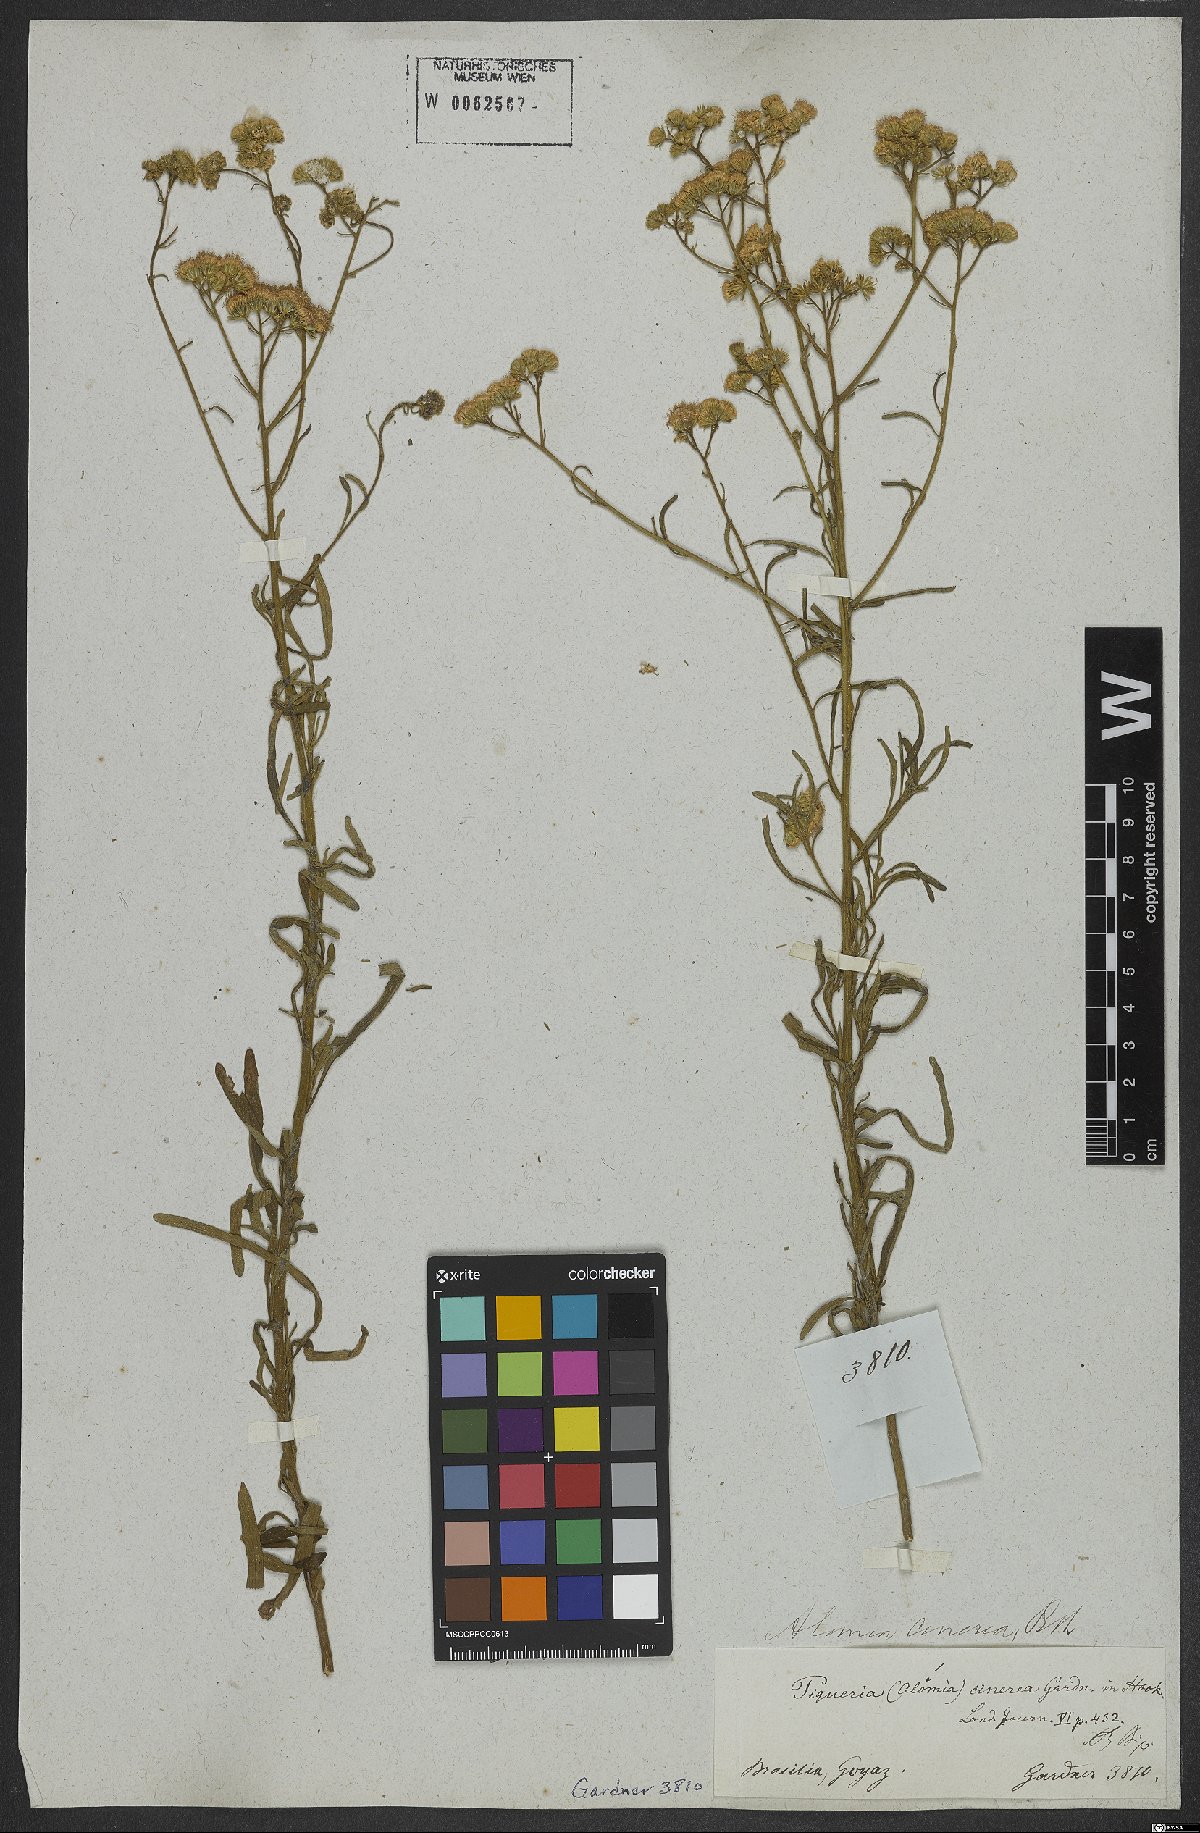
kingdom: Plantae
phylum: Tracheophyta
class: Magnoliopsida
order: Asterales
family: Asteraceae
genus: Trichogonia
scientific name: Trichogonia cinerea
